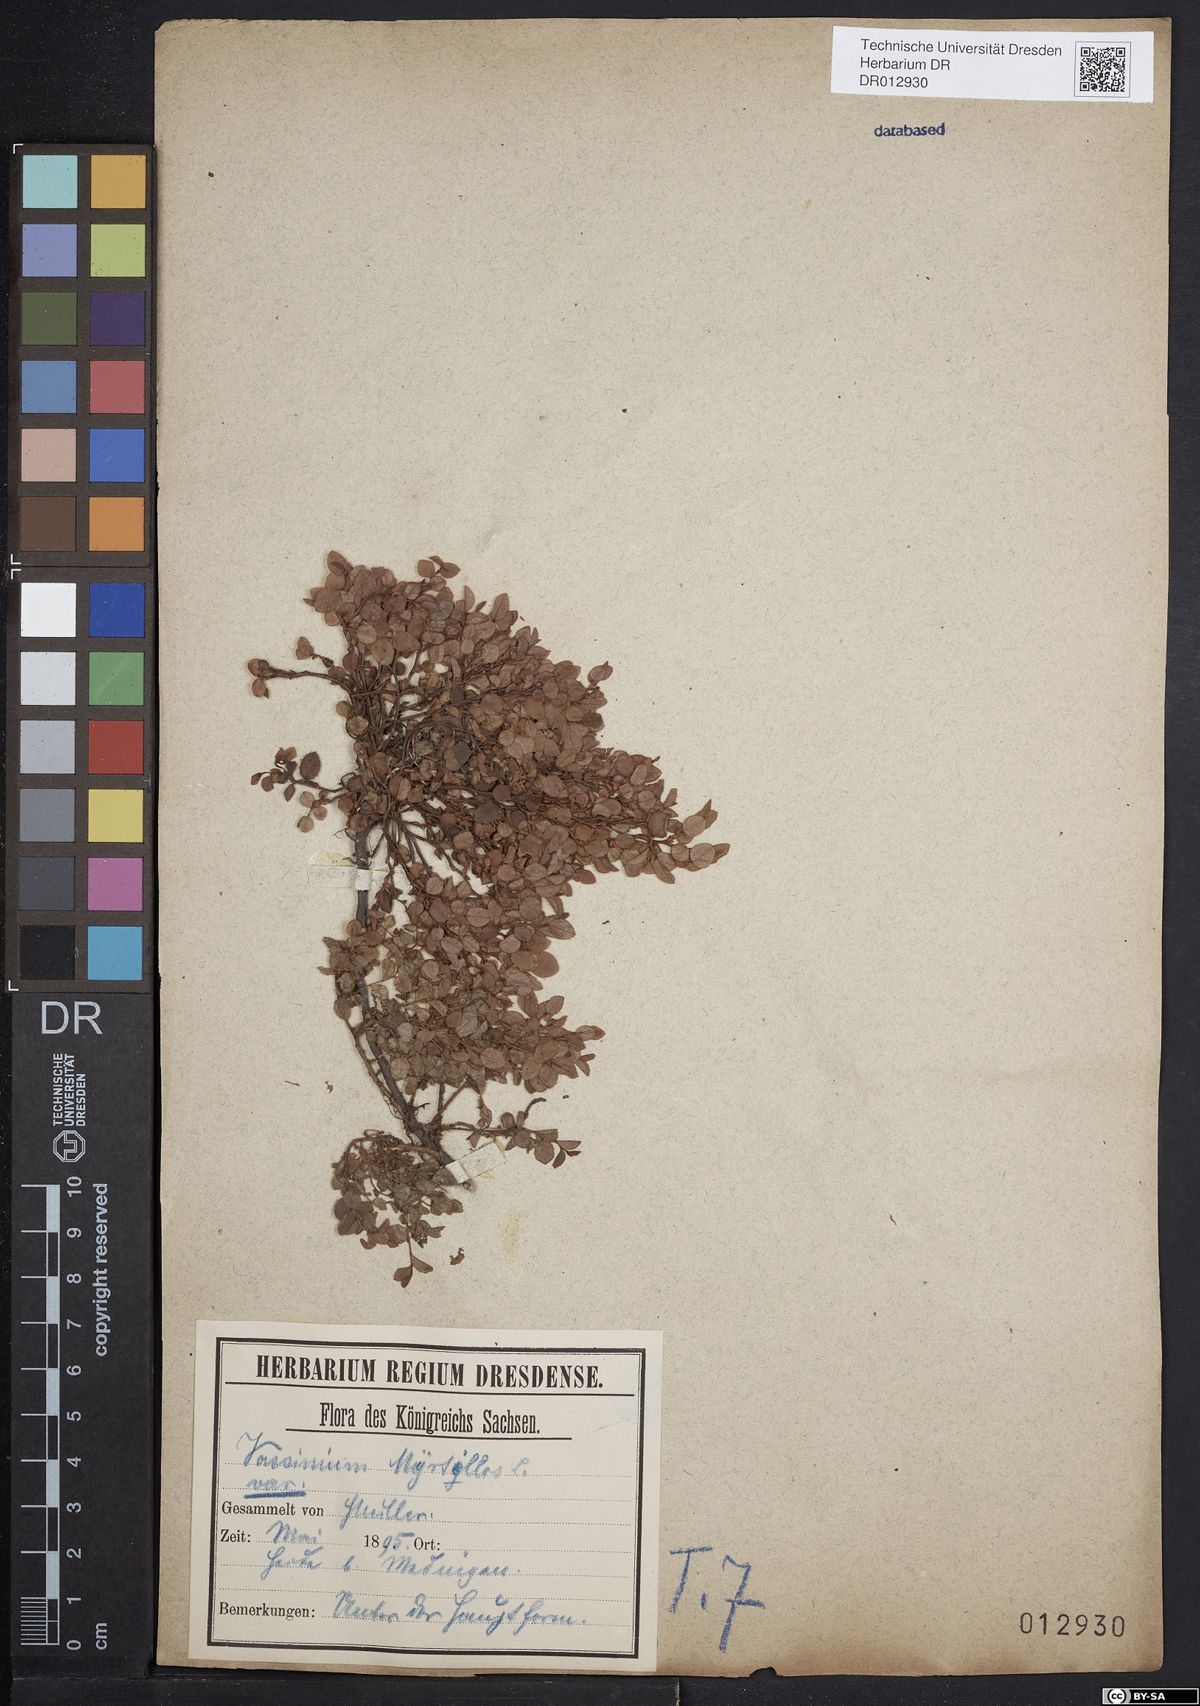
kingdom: Plantae
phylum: Tracheophyta
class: Magnoliopsida
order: Ericales
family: Ericaceae
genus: Vaccinium
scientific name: Vaccinium myrtillus
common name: Bilberry
